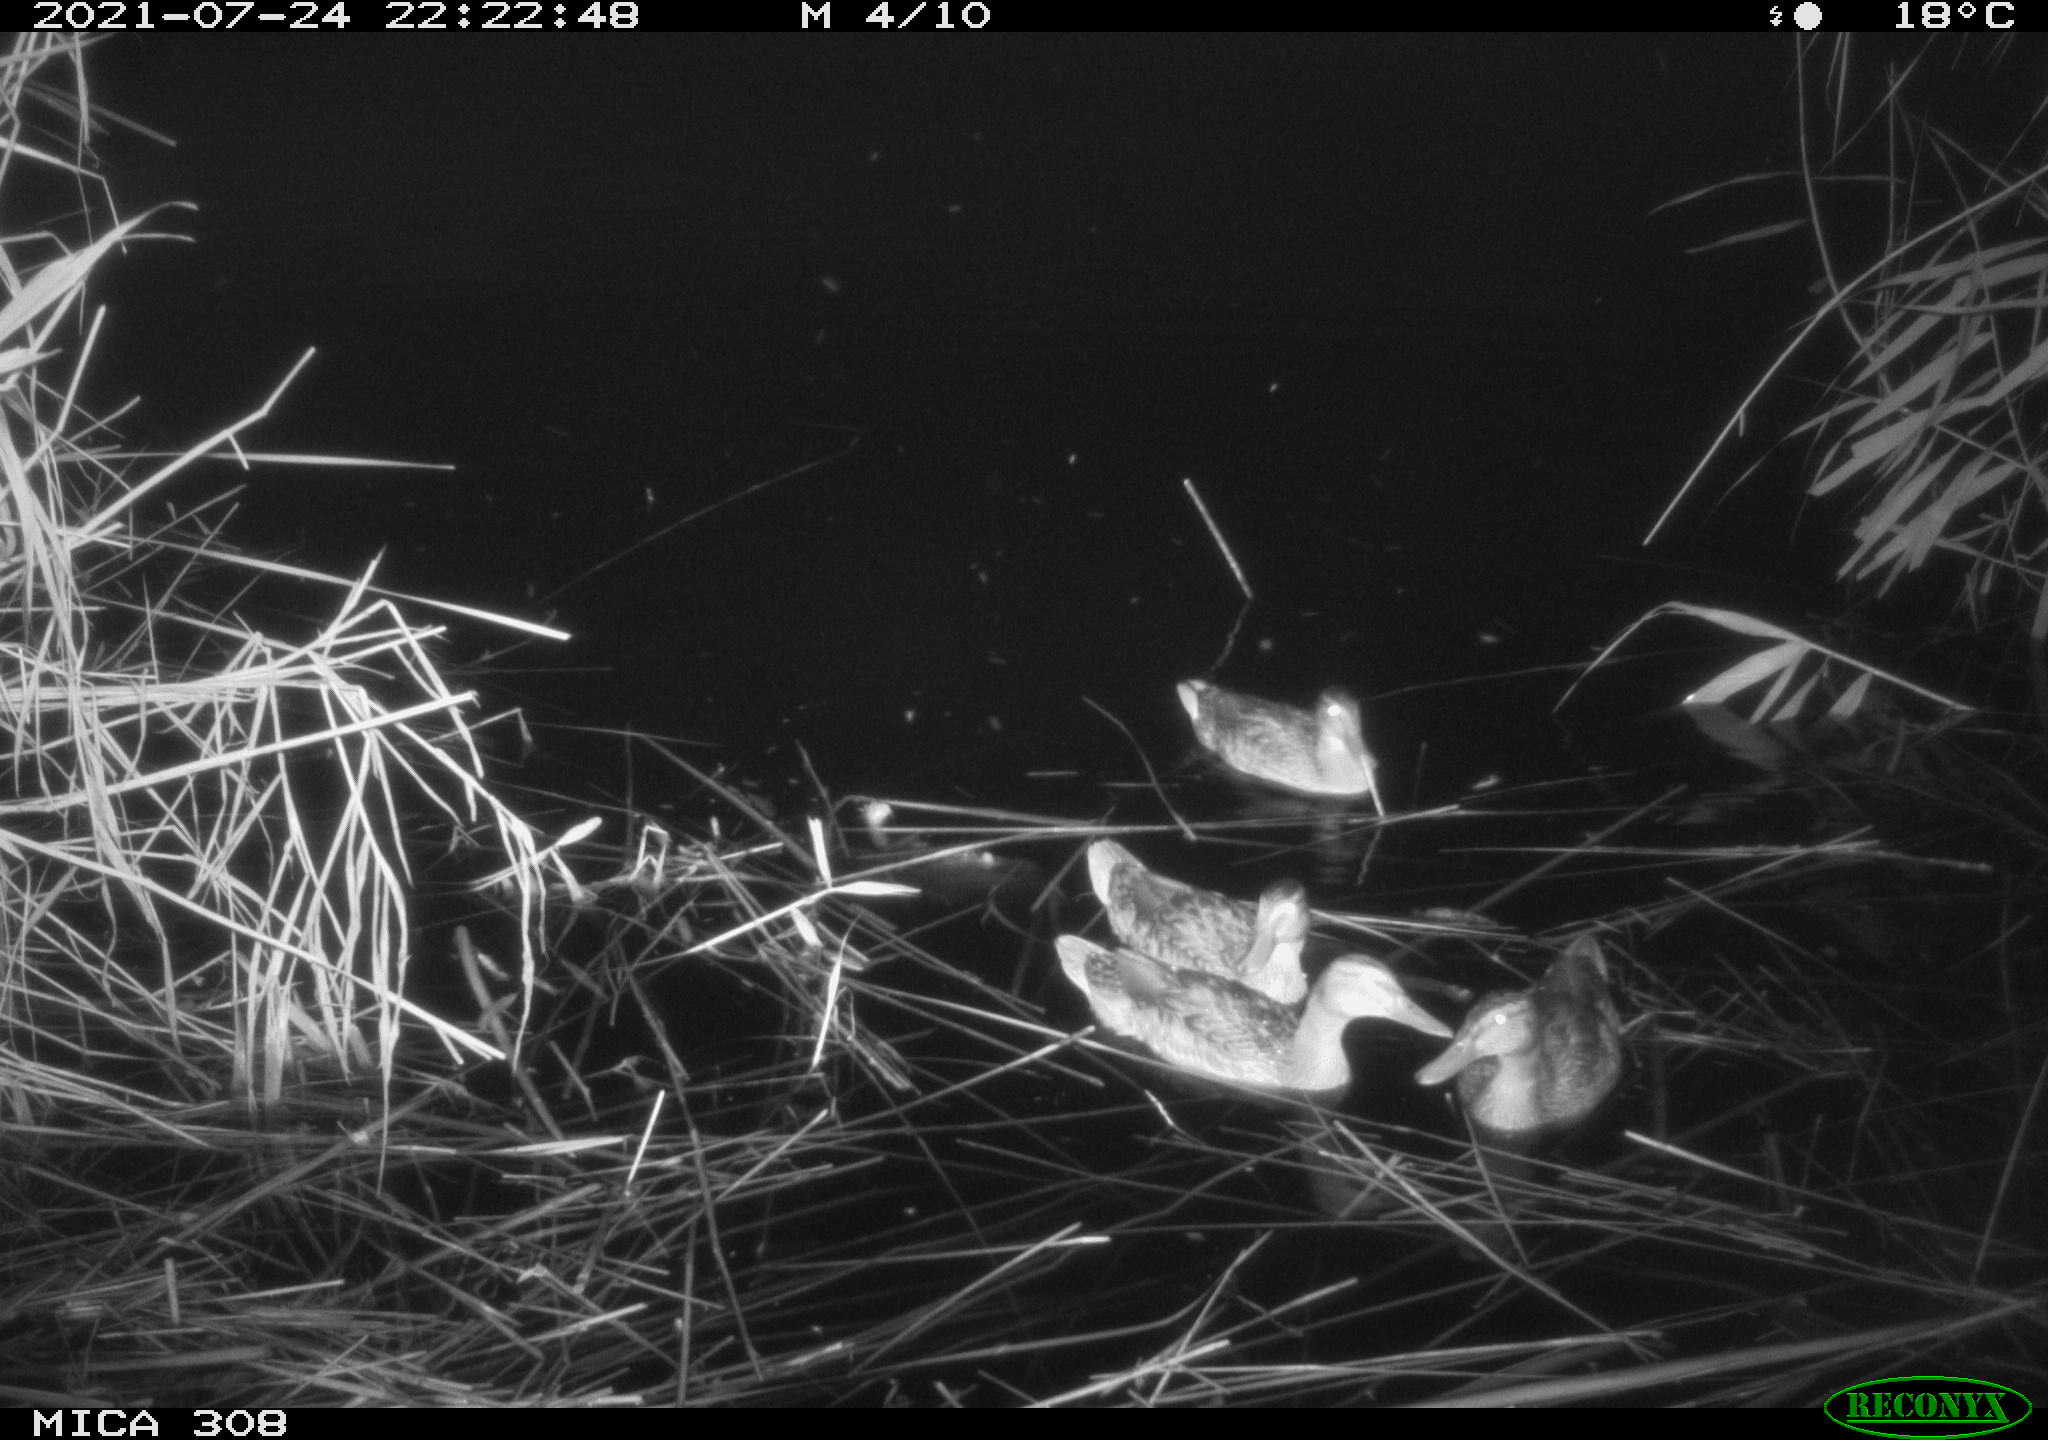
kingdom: Animalia
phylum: Chordata
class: Aves
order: Anseriformes
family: Anatidae
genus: Anas
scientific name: Anas platyrhynchos
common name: Mallard
